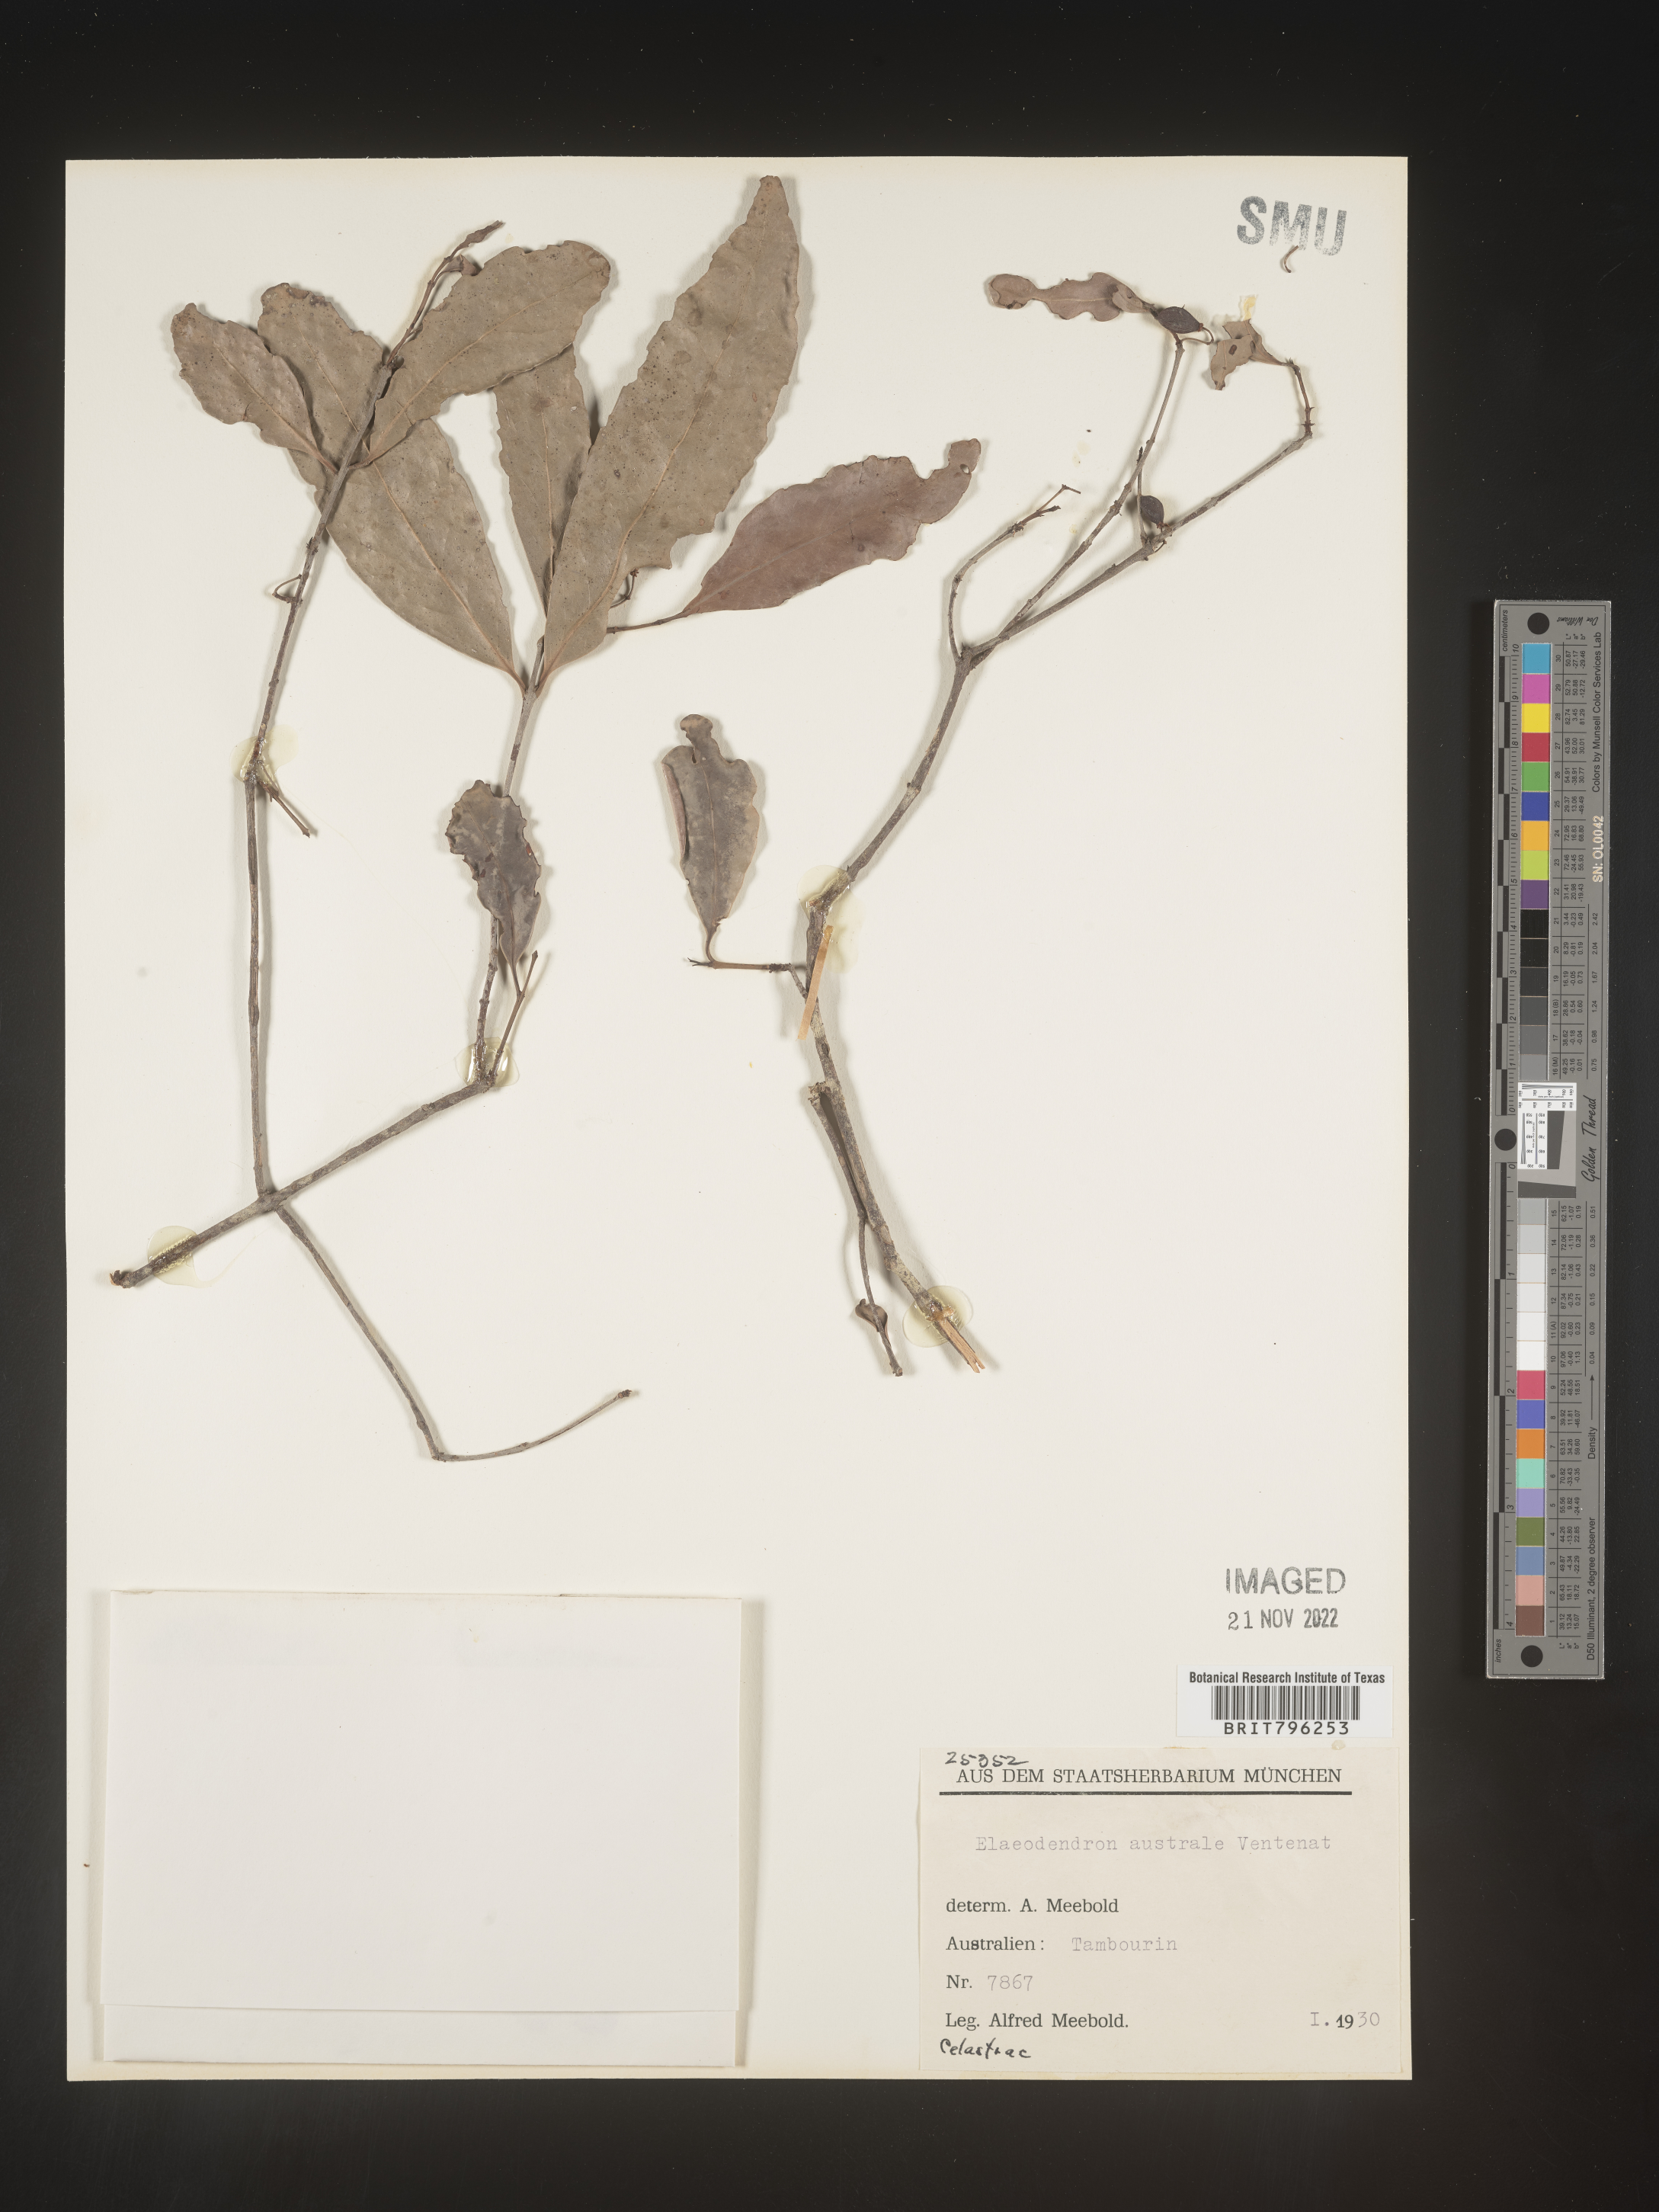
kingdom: Plantae
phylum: Tracheophyta
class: Magnoliopsida
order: Celastrales
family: Celastraceae
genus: Elaeodendron
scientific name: Elaeodendron
